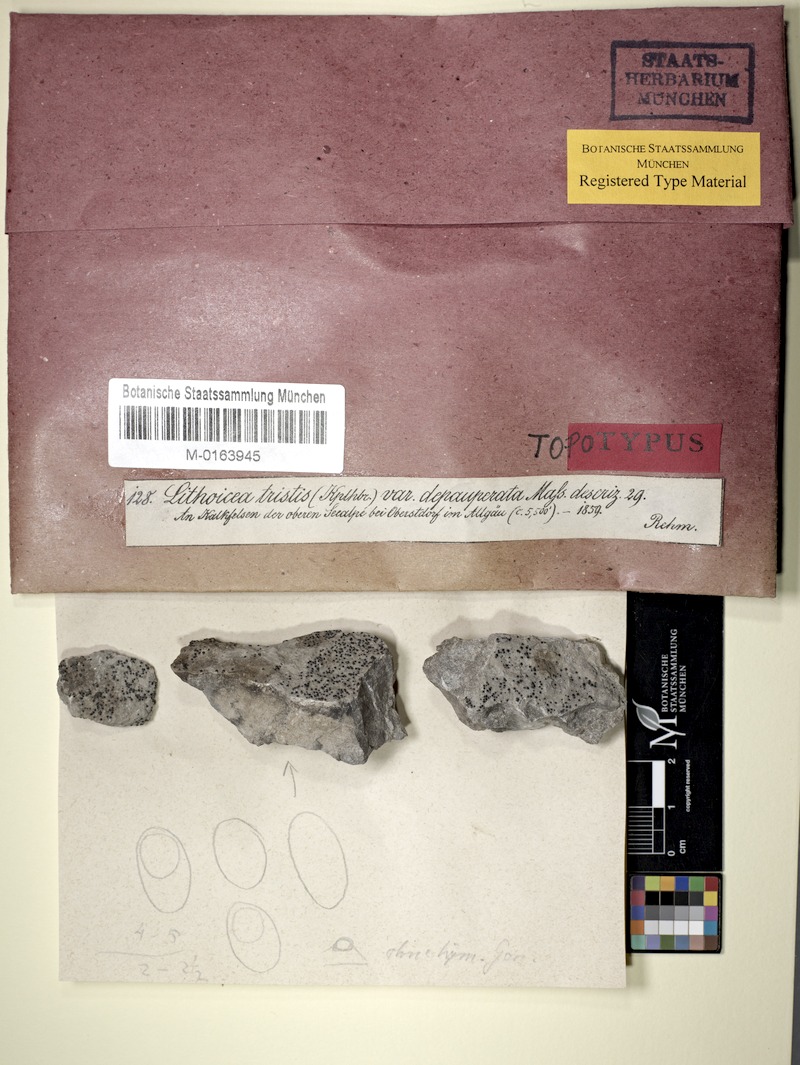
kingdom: Fungi
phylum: Ascomycota
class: Eurotiomycetes
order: Verrucariales
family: Verrucariaceae
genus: Verrucaria
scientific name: Verrucaria Lithocia tristis
